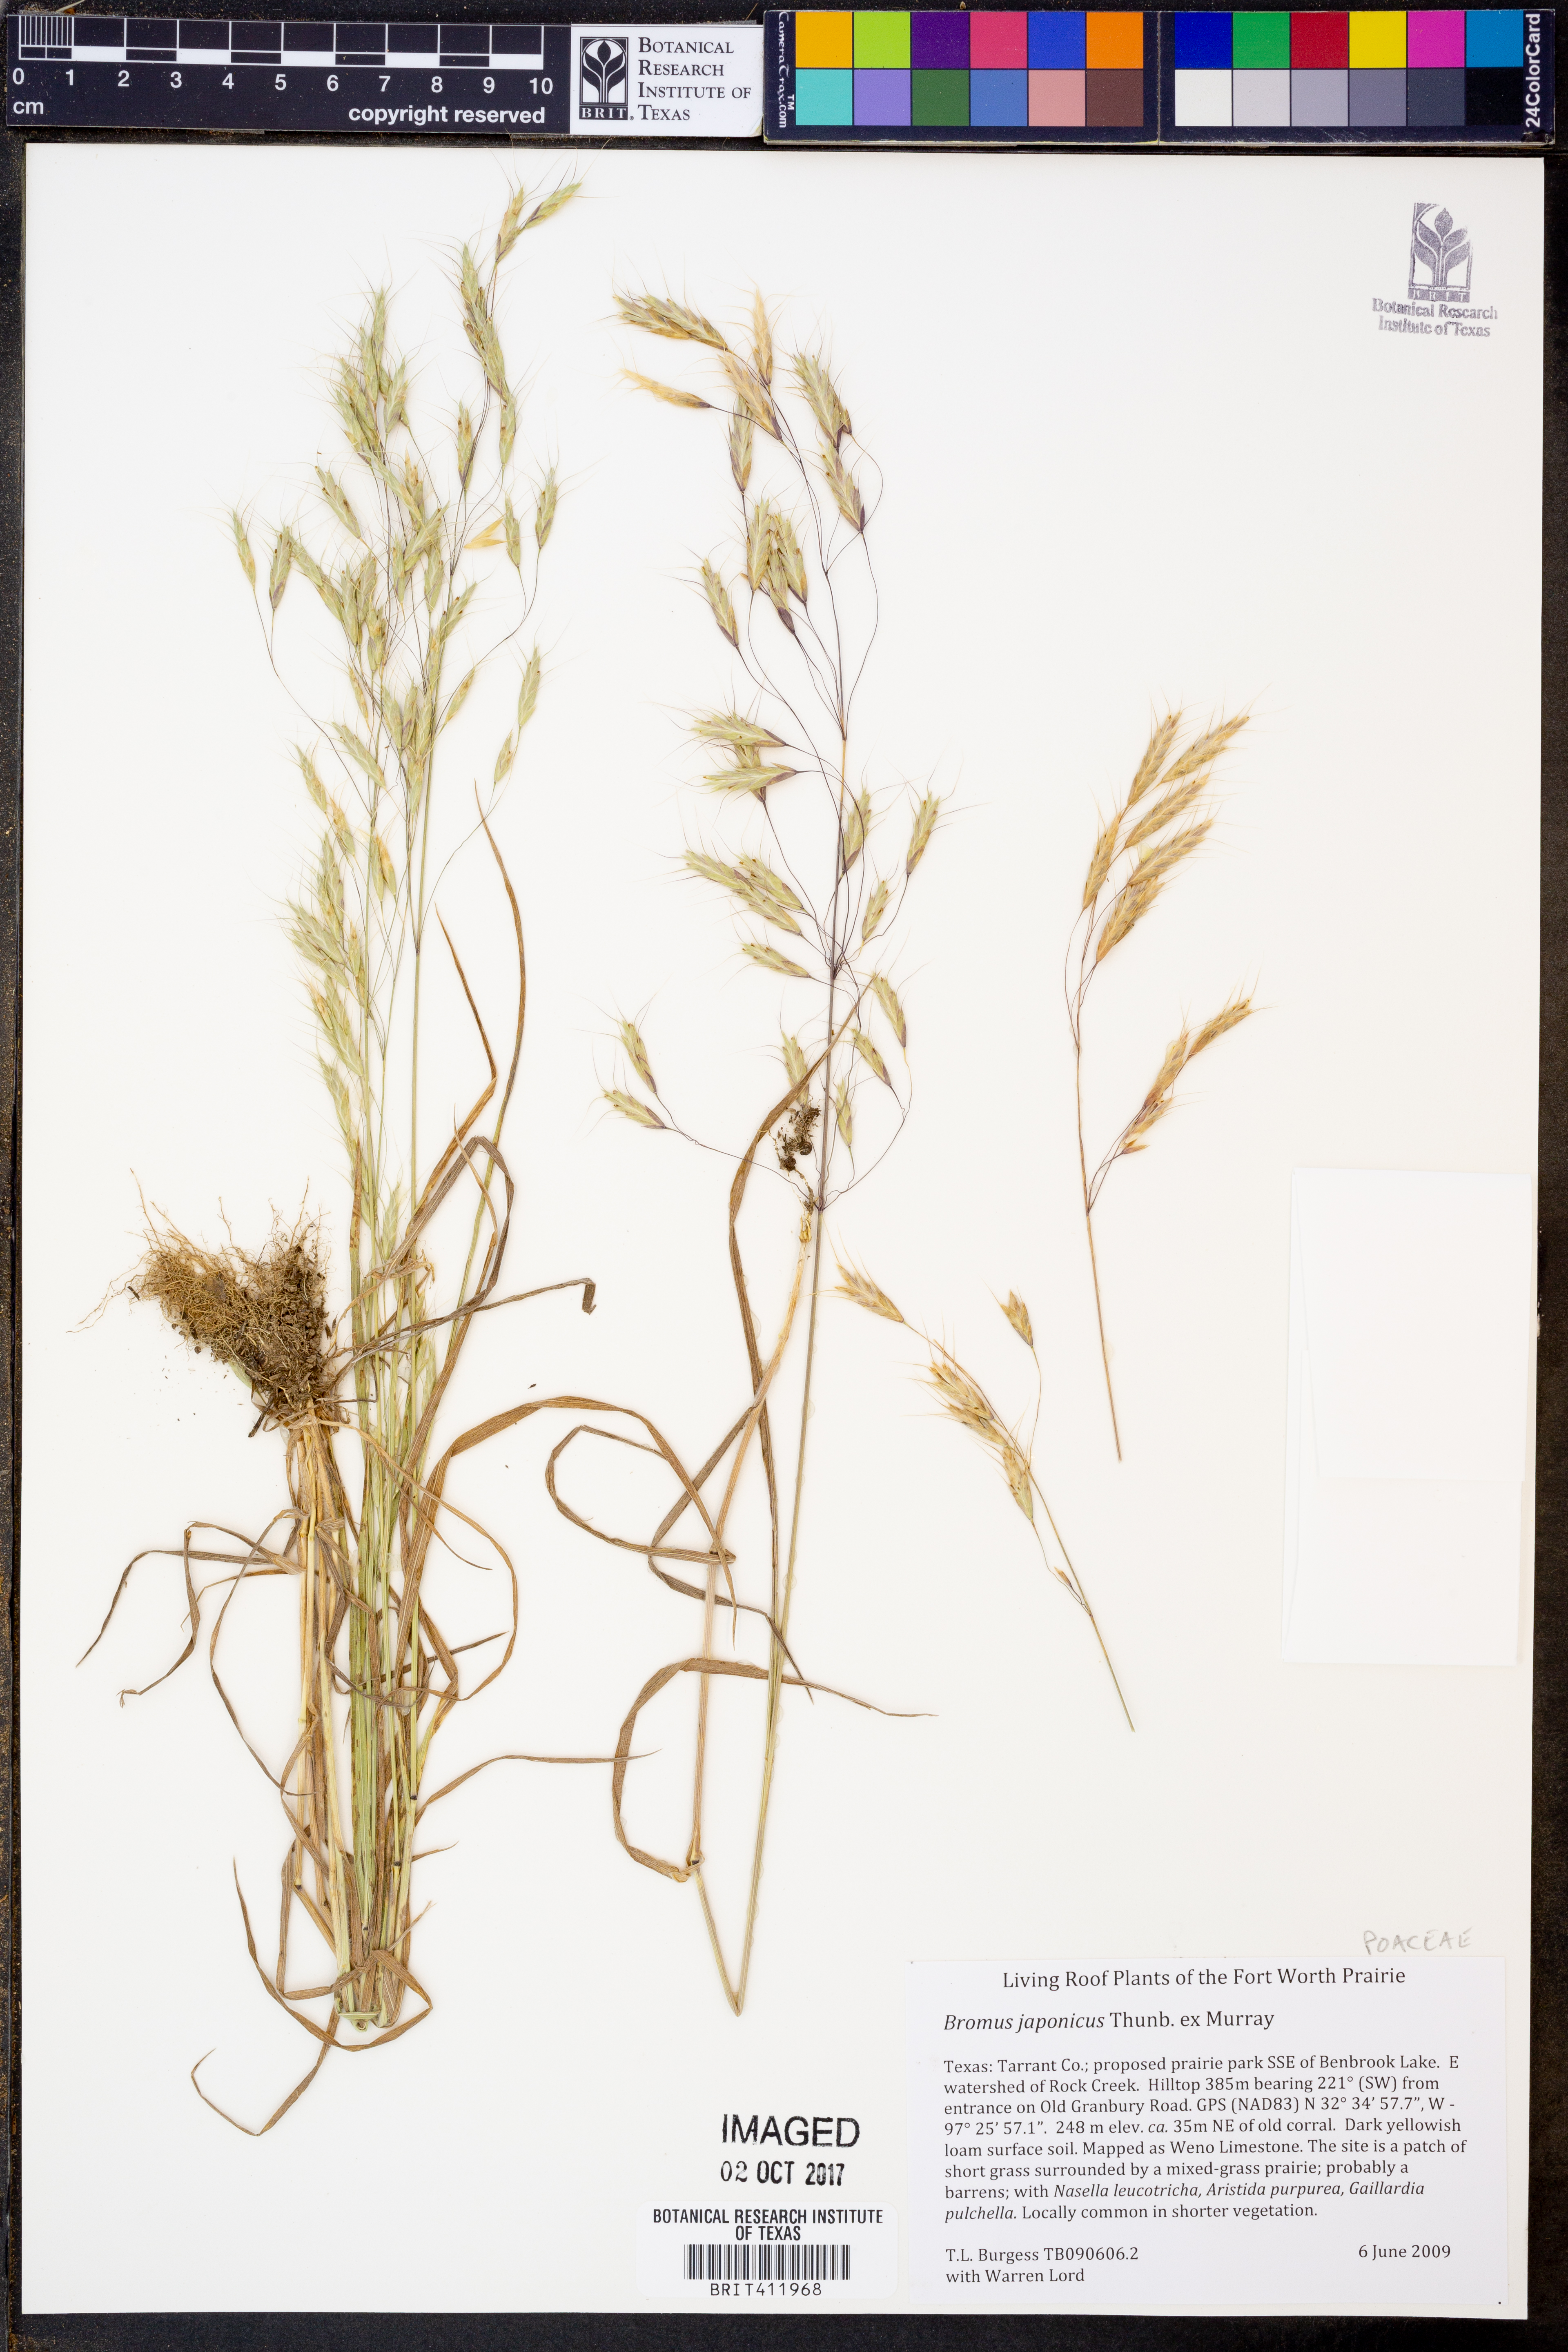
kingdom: Plantae
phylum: Tracheophyta
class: Liliopsida
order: Poales
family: Poaceae
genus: Bromus
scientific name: Bromus japonicus
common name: Japanese brome
